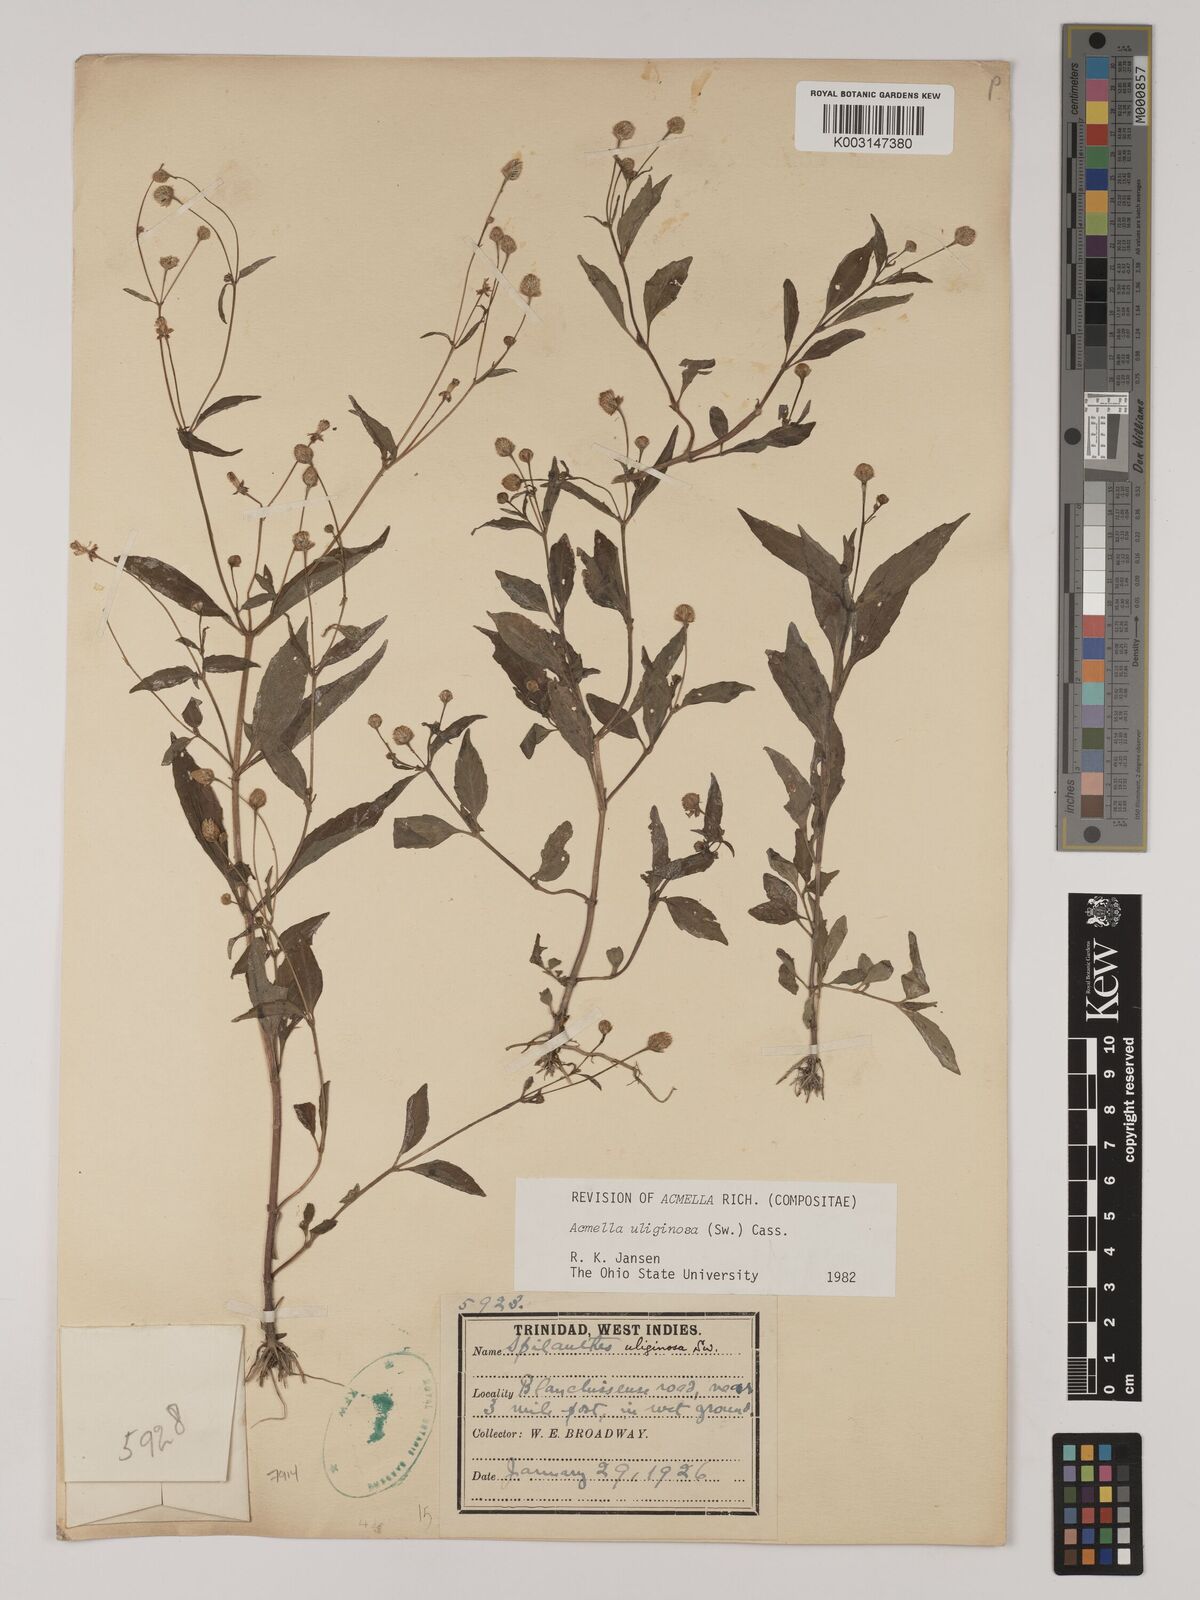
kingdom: Plantae
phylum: Tracheophyta
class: Magnoliopsida
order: Asterales
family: Asteraceae
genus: Acmella
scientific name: Acmella uliginosa
